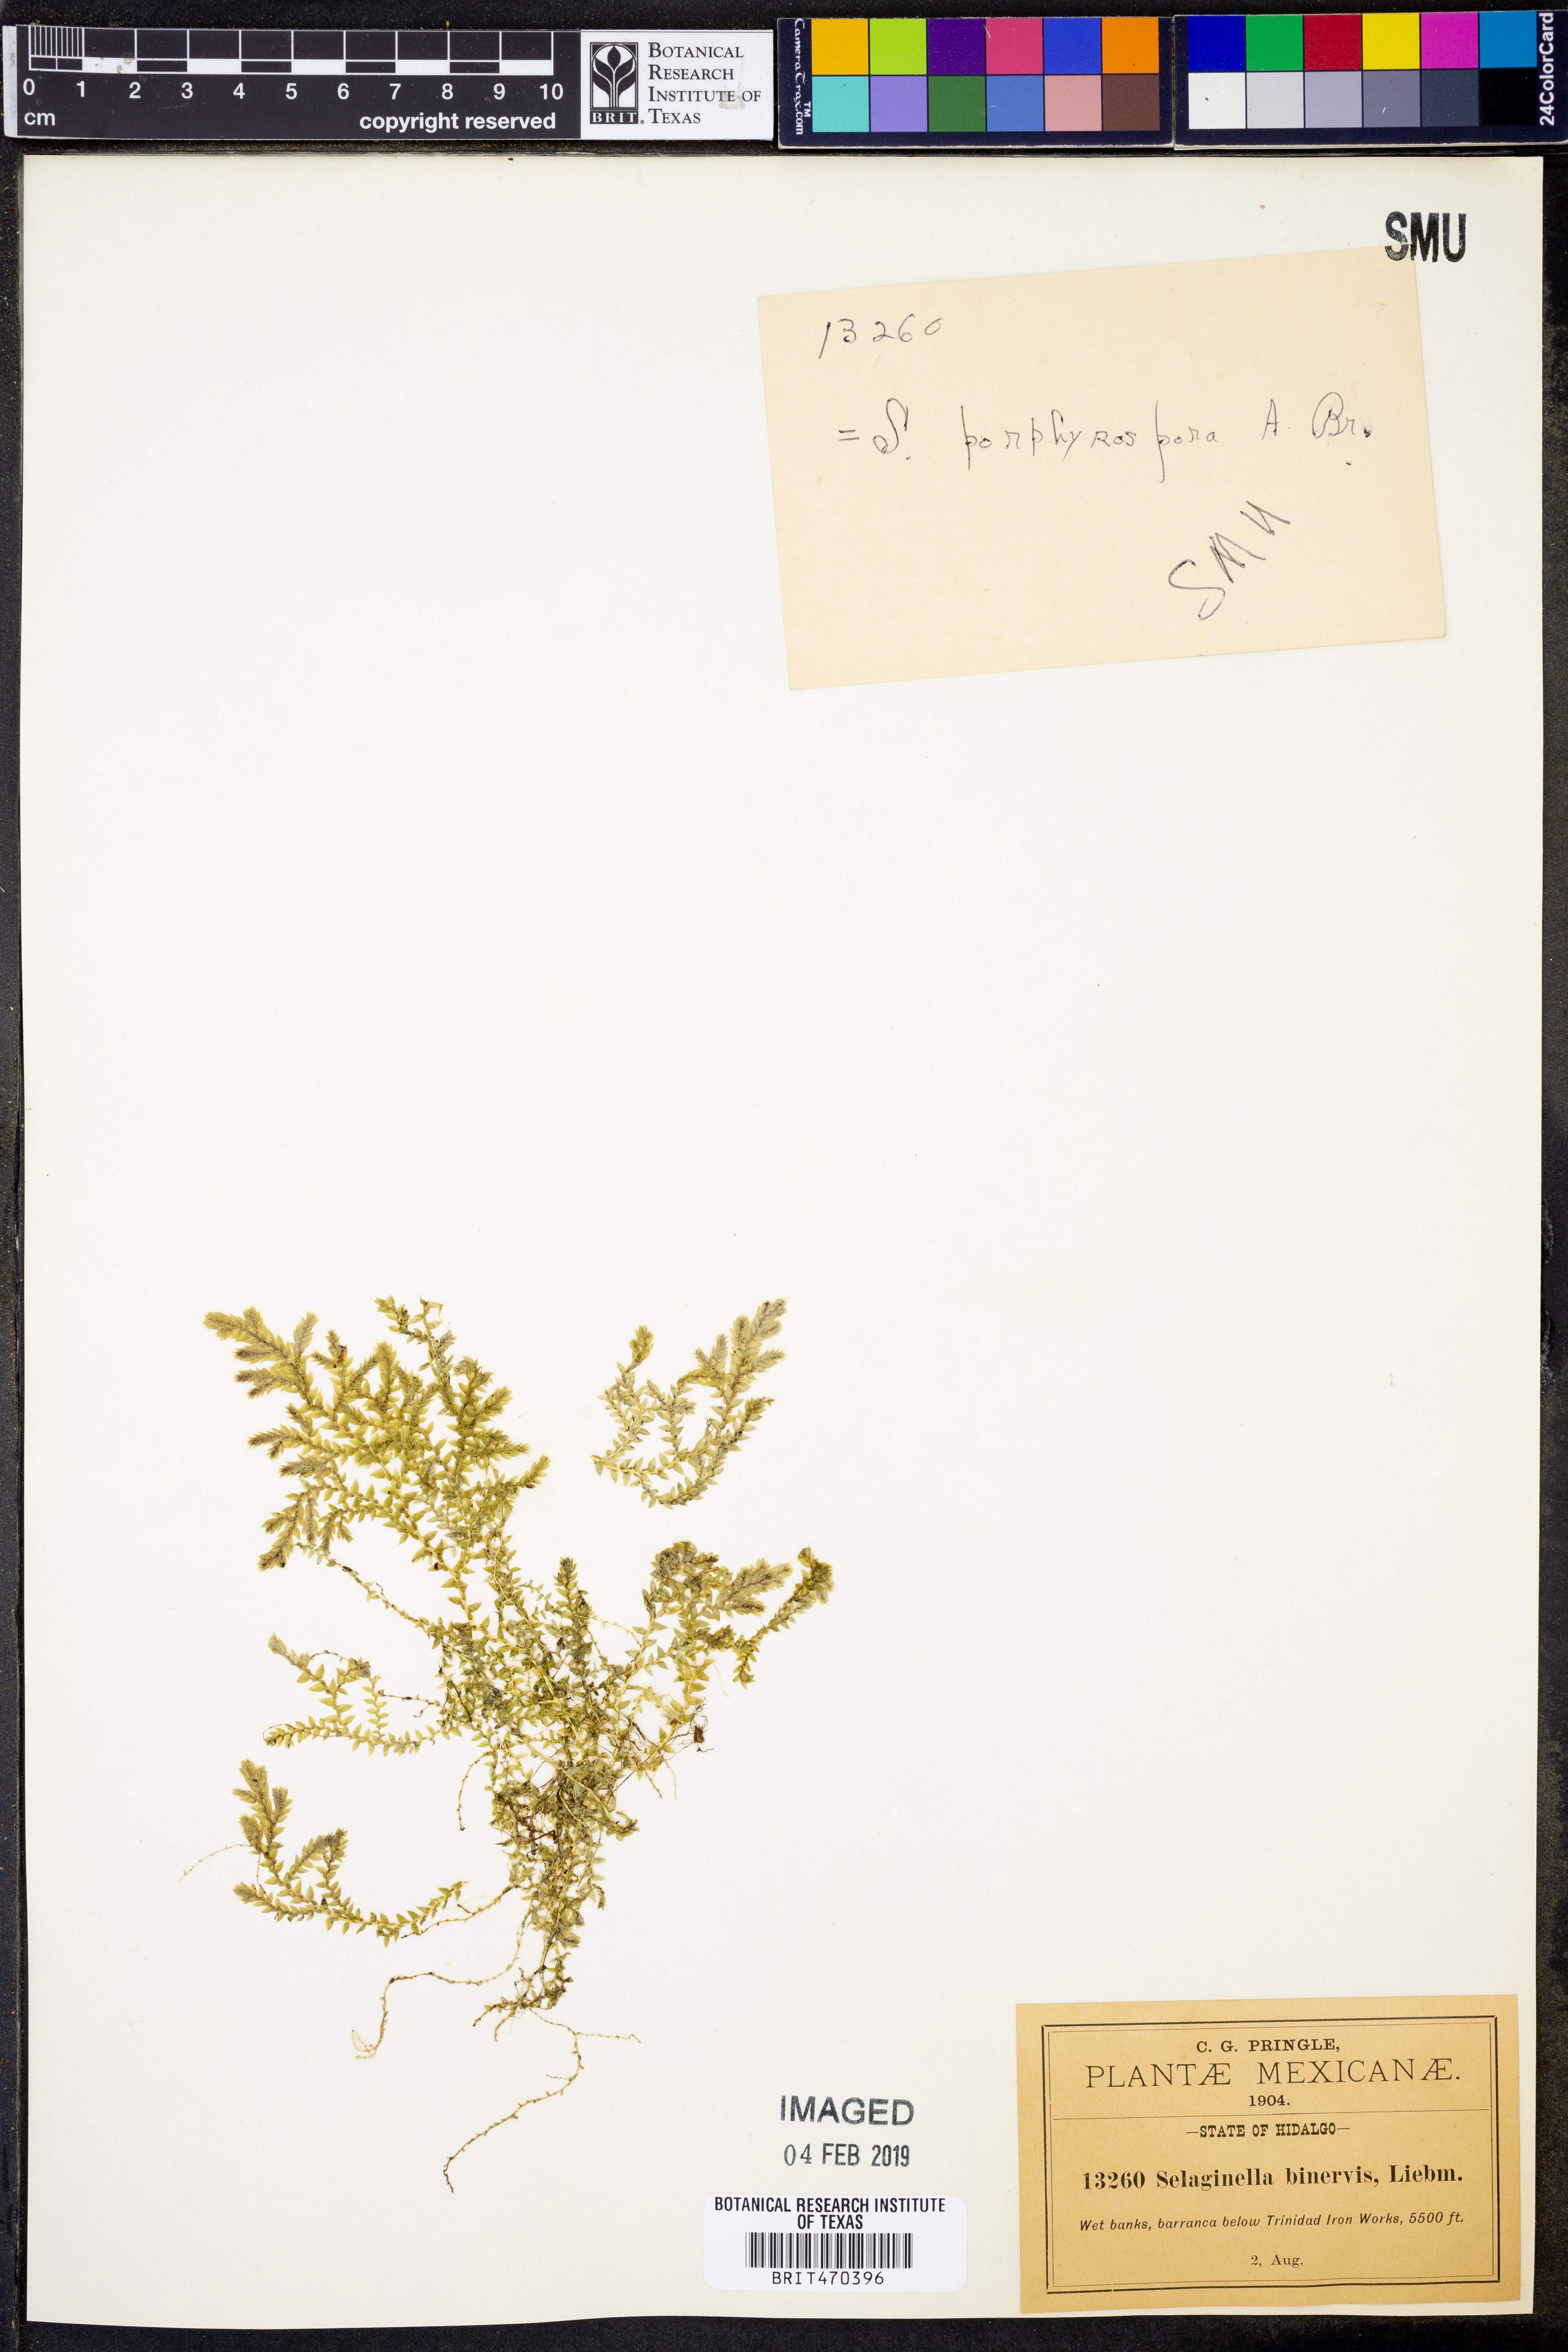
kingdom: Plantae
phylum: Tracheophyta
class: Lycopodiopsida
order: Selaginellales
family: Selaginellaceae
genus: Selaginella
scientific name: Selaginella porphyrospora
